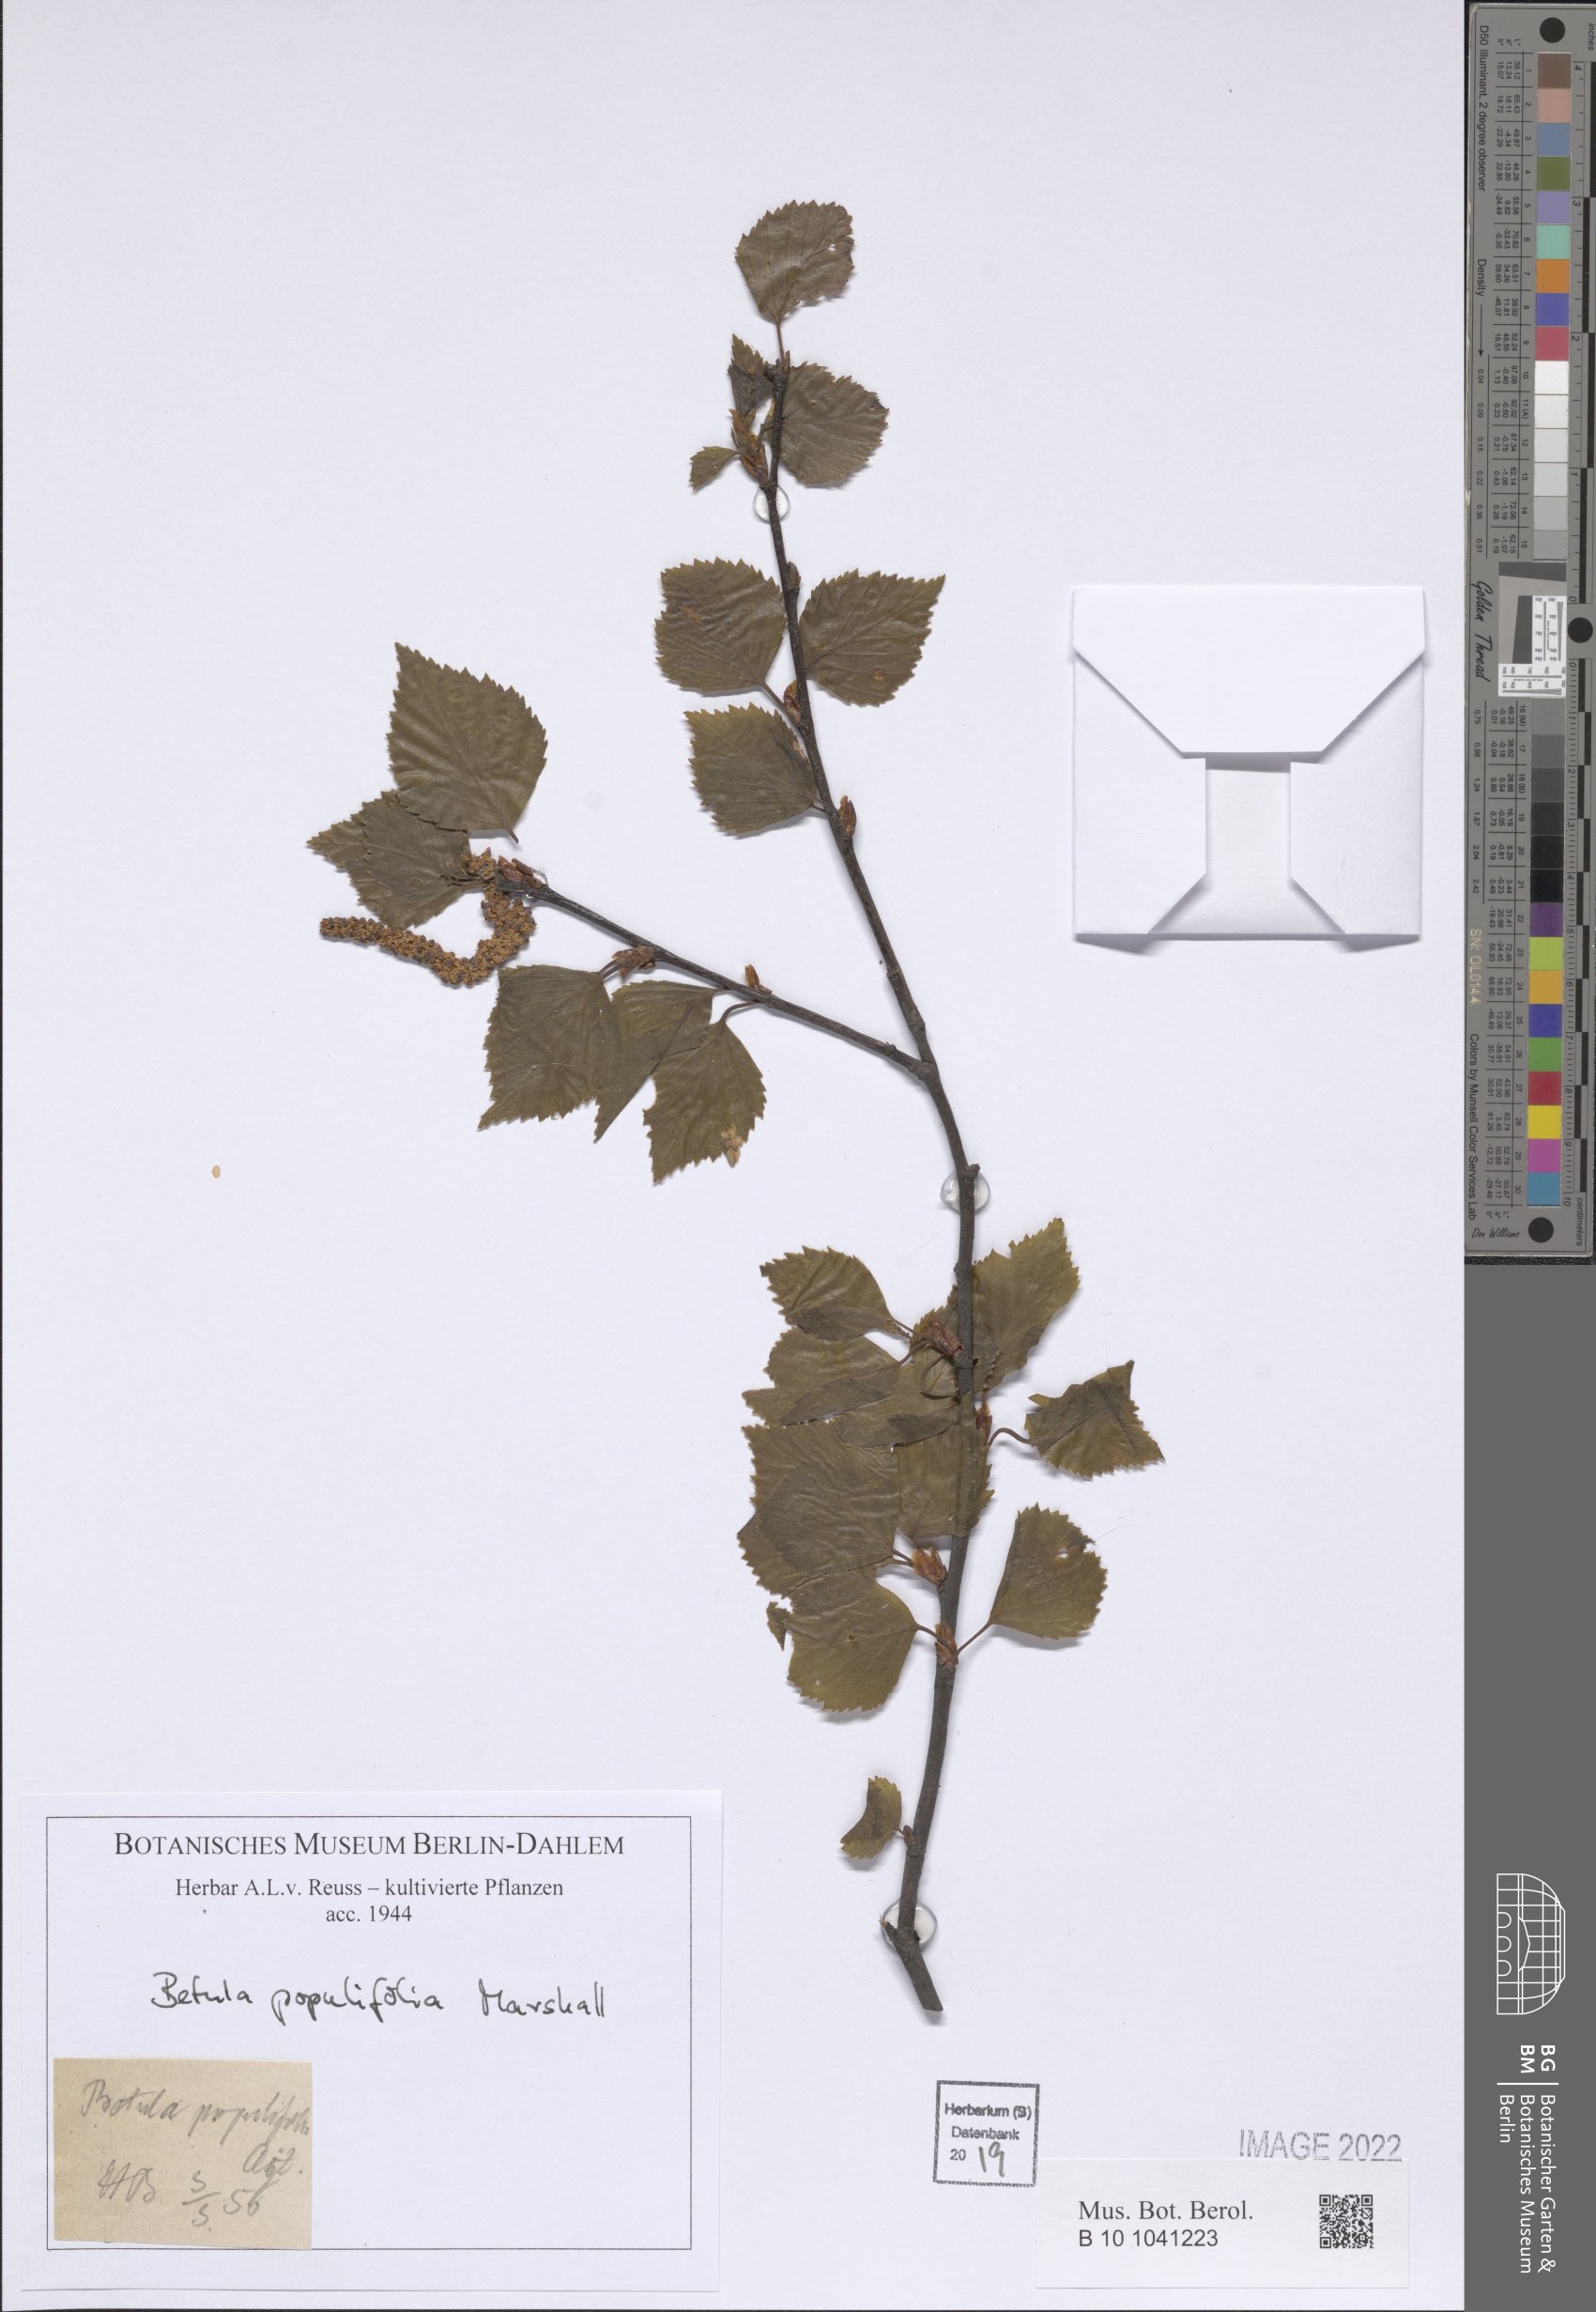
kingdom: Plantae
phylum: Tracheophyta
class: Magnoliopsida
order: Fagales
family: Betulaceae
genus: Betula
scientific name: Betula populifolia
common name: Fire birch
